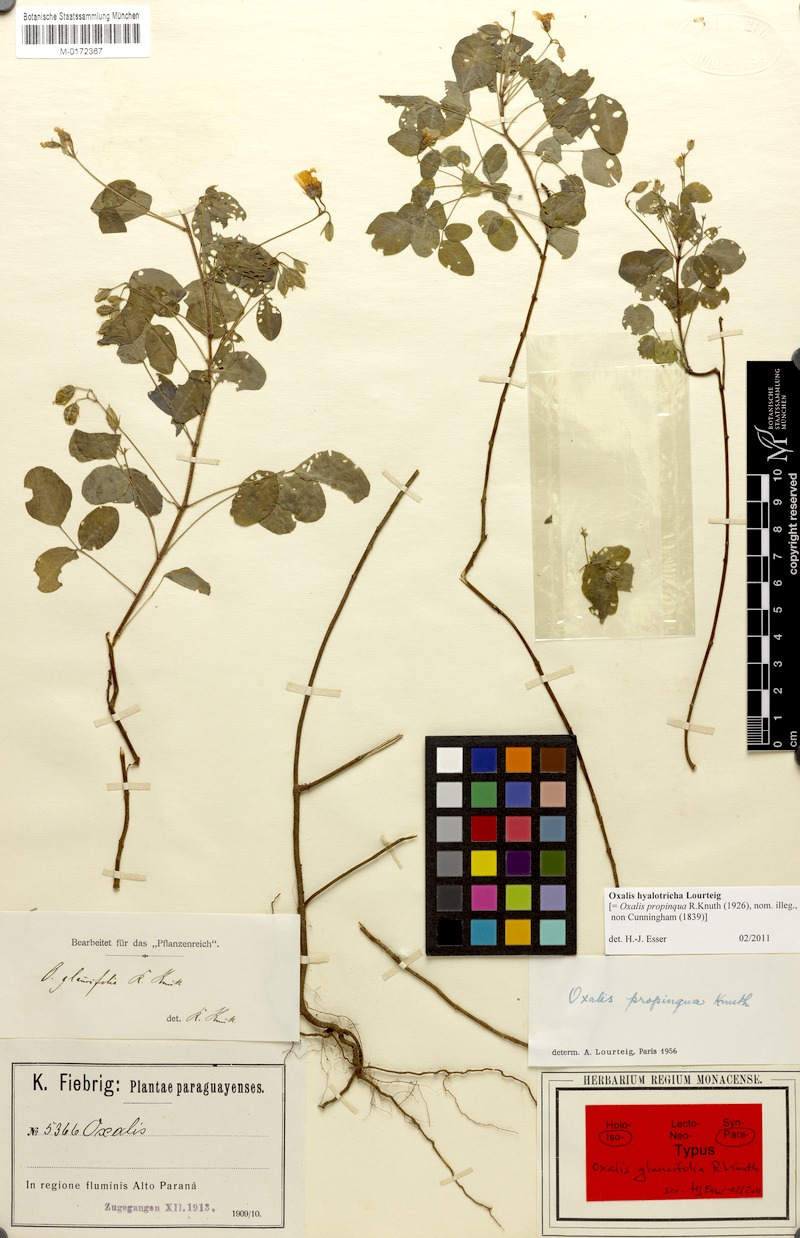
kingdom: Plantae
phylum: Tracheophyta
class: Magnoliopsida
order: Oxalidales
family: Oxalidaceae
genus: Oxalis
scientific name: Oxalis hyalotricha
